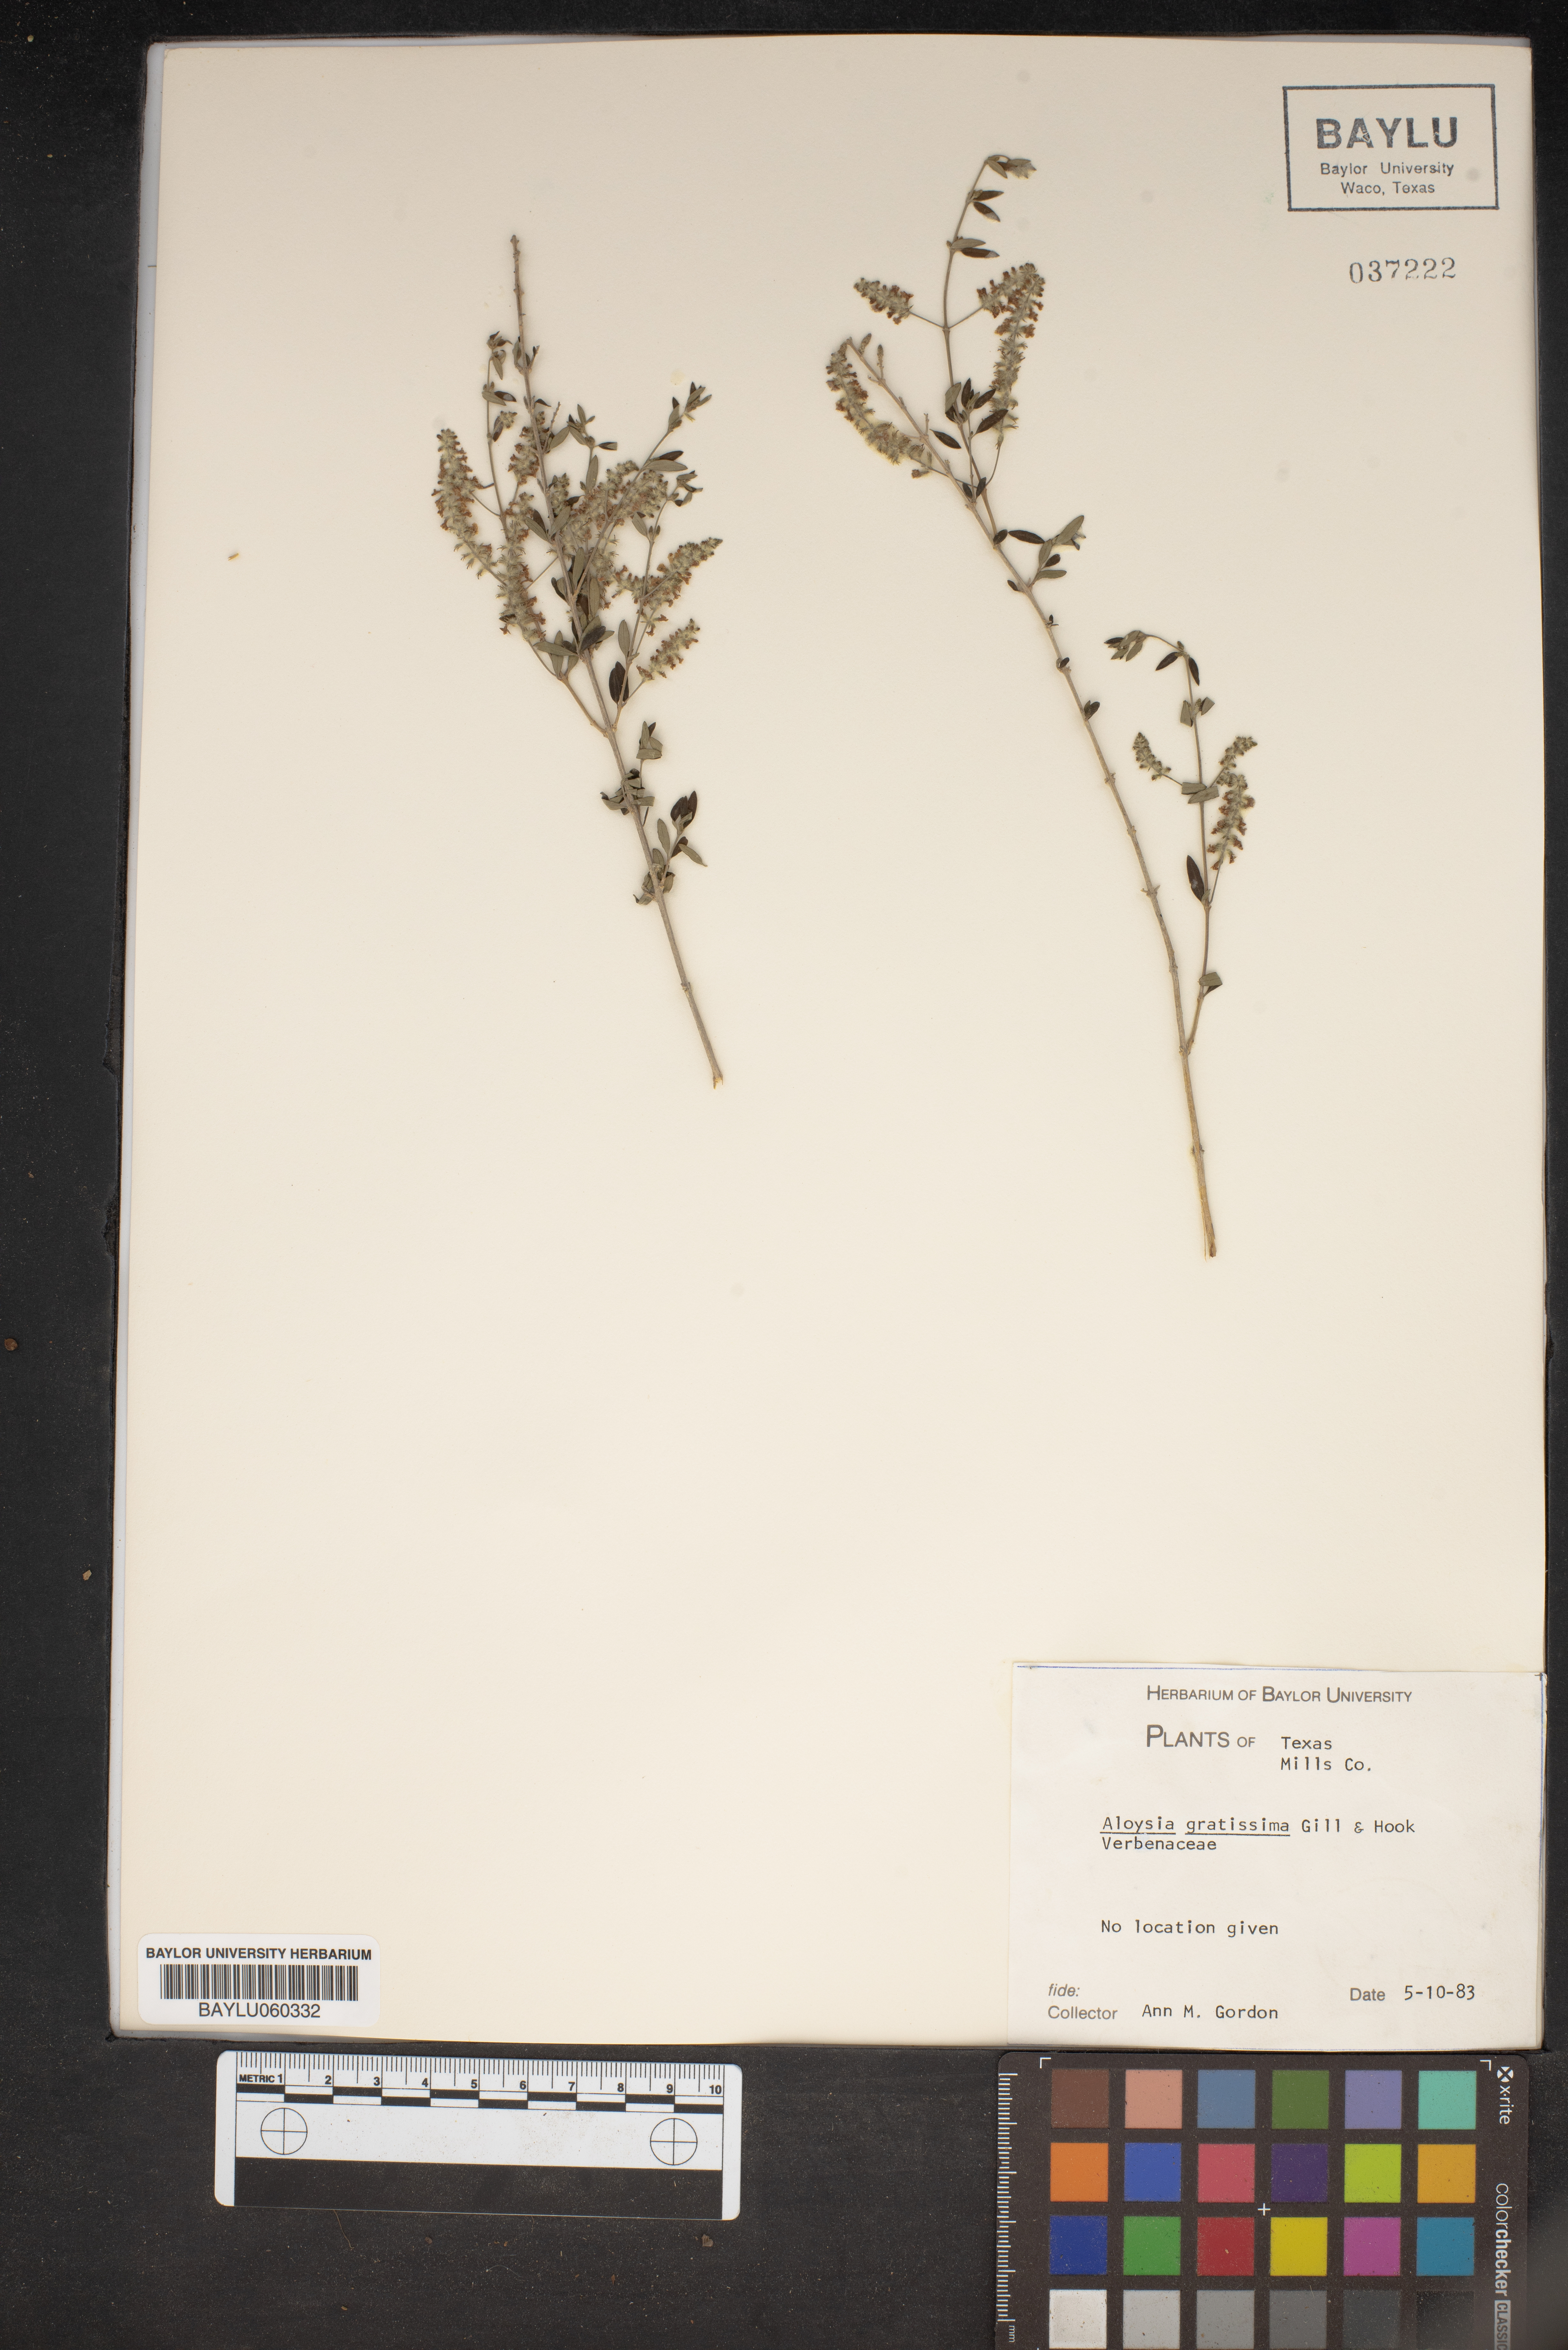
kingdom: Plantae
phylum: Tracheophyta
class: Magnoliopsida
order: Lamiales
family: Verbenaceae
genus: Aloysia
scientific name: Aloysia gratissima
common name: Common bee-brush
